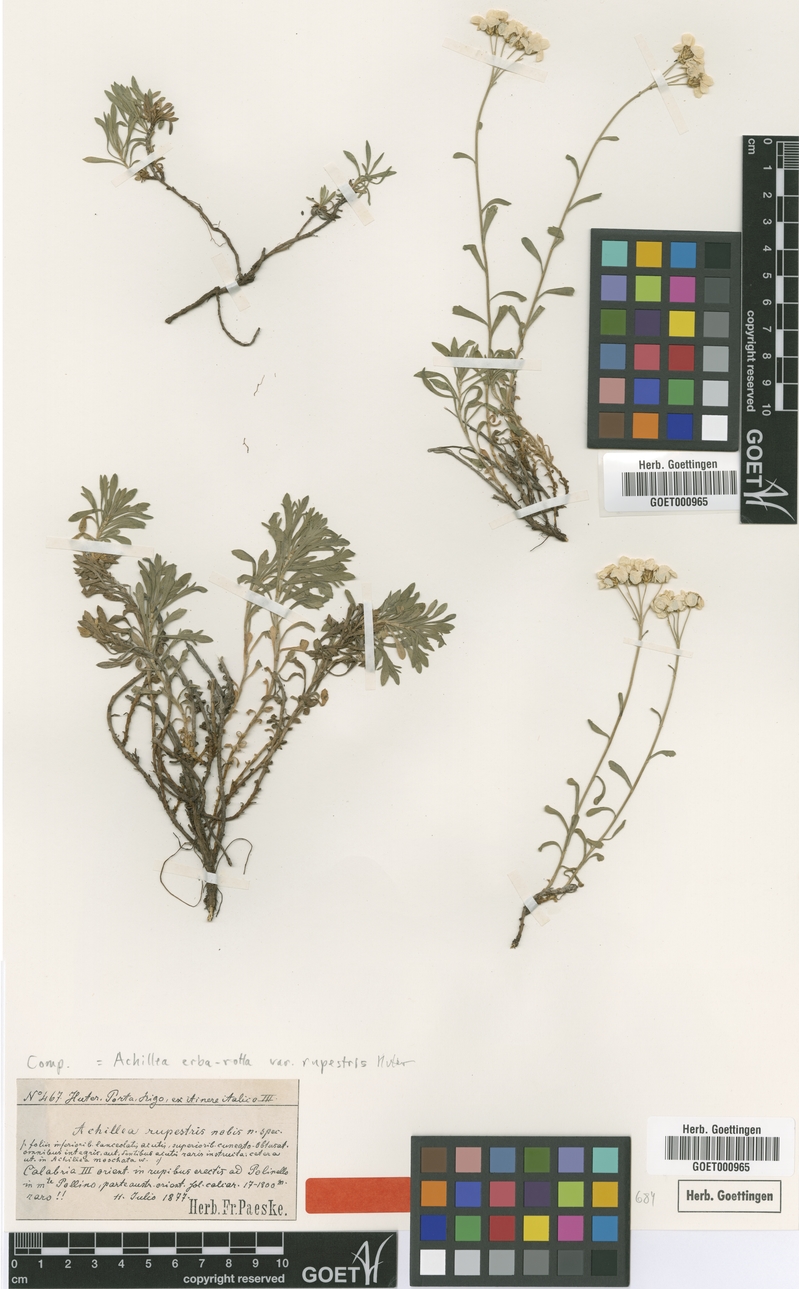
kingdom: Plantae
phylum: Tracheophyta
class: Magnoliopsida
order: Asterales
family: Asteraceae
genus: Achillea
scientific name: Achillea erba-rotta
